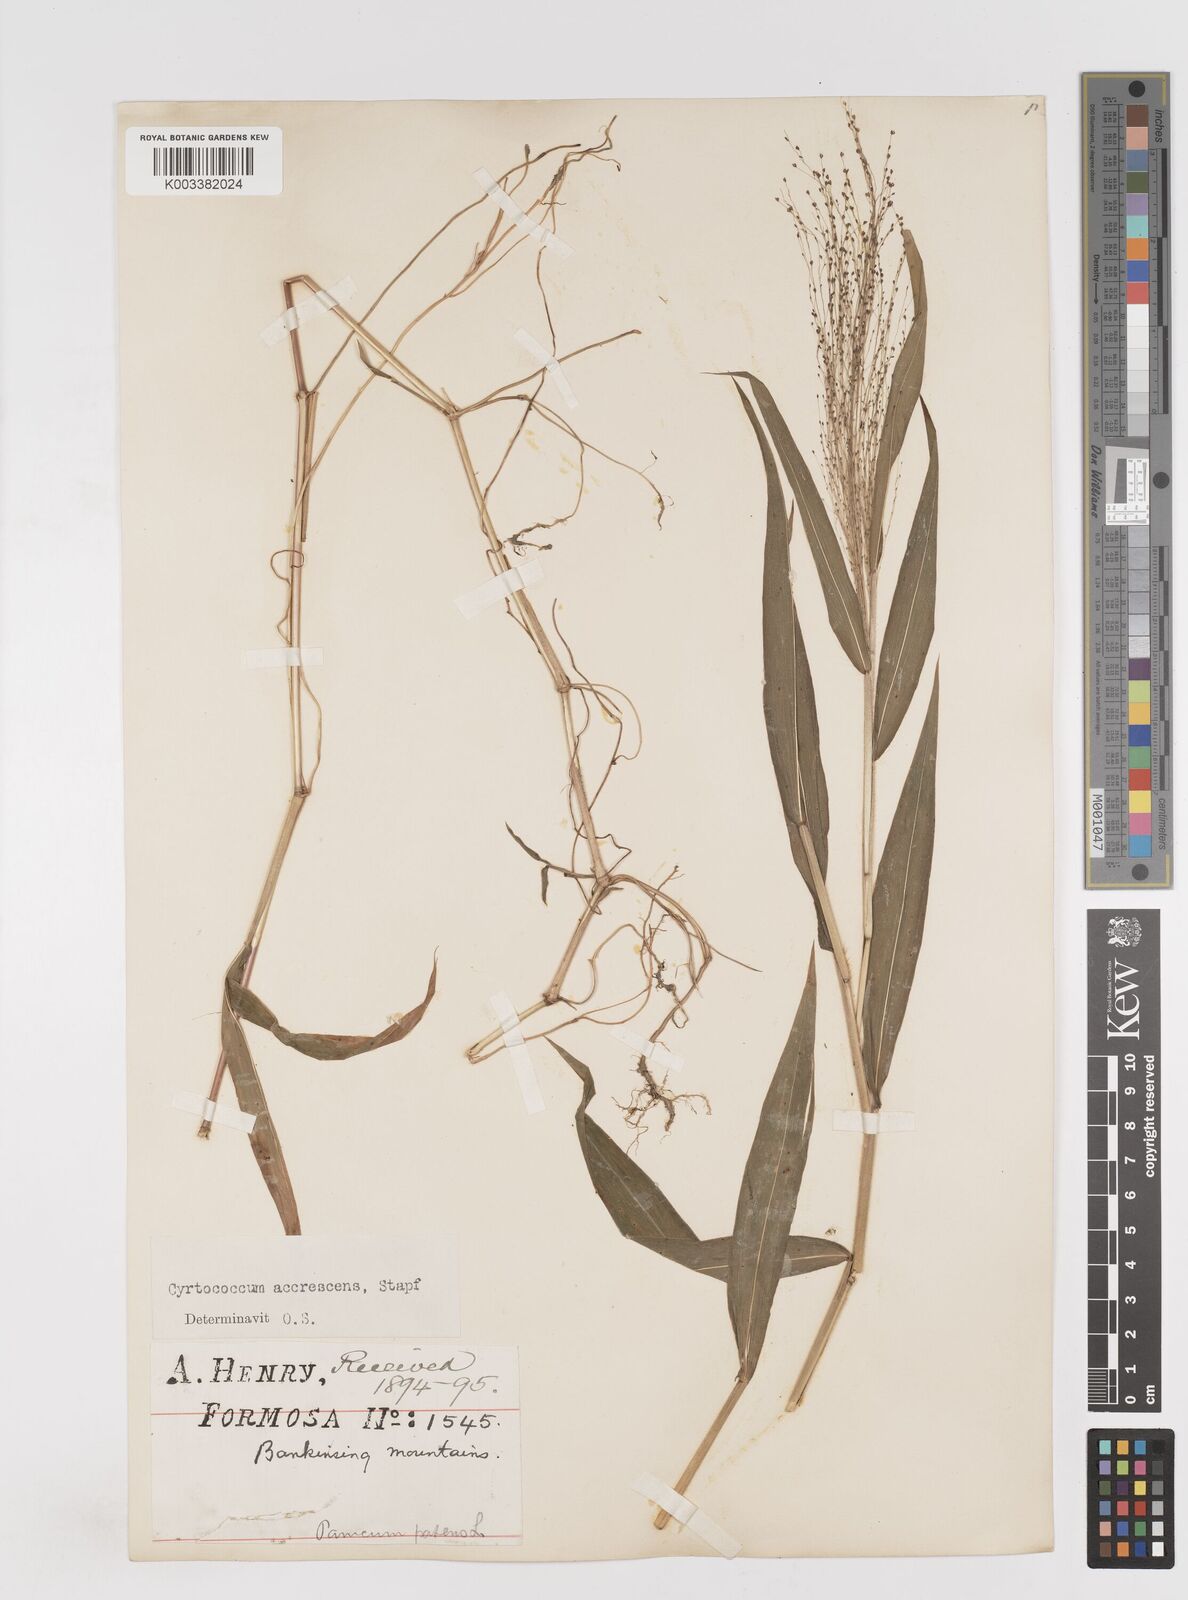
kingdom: Plantae
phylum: Tracheophyta
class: Liliopsida
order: Poales
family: Poaceae
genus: Cyrtococcum
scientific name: Cyrtococcum accrescens
